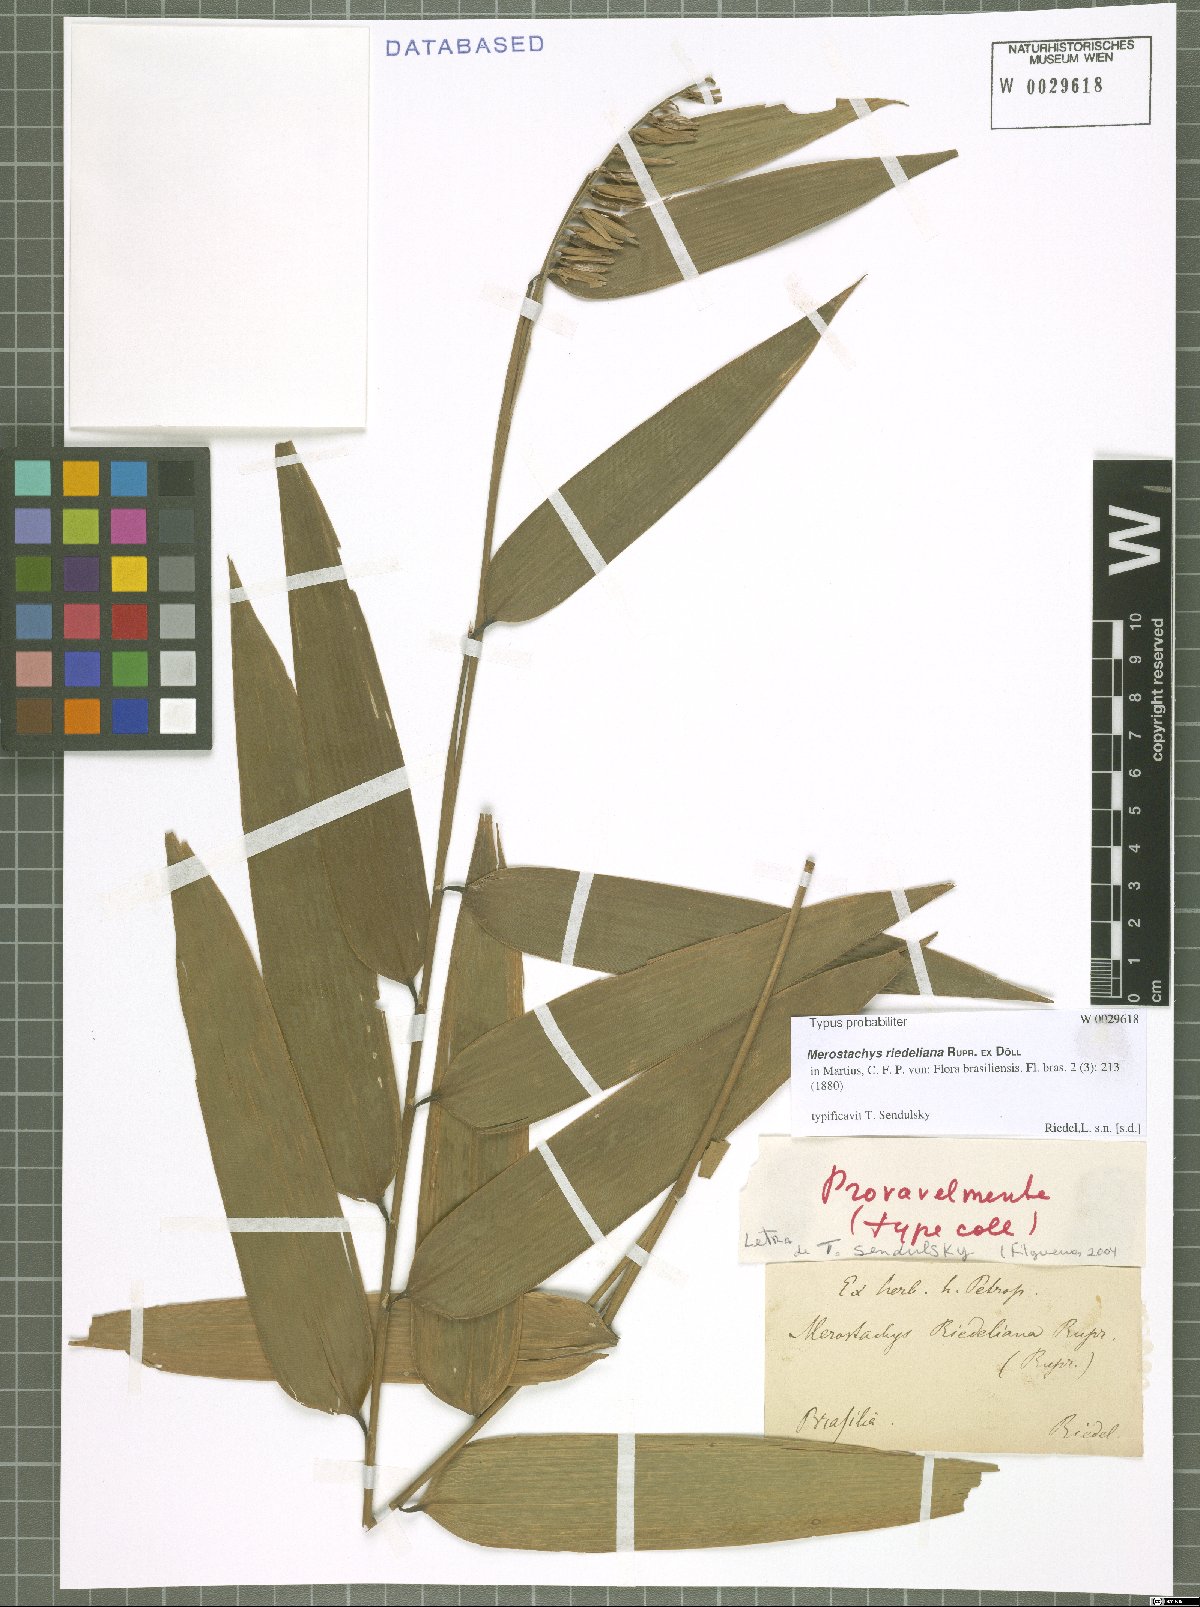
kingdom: Plantae
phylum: Tracheophyta
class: Liliopsida
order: Poales
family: Poaceae
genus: Merostachys
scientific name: Merostachys riedeliana
